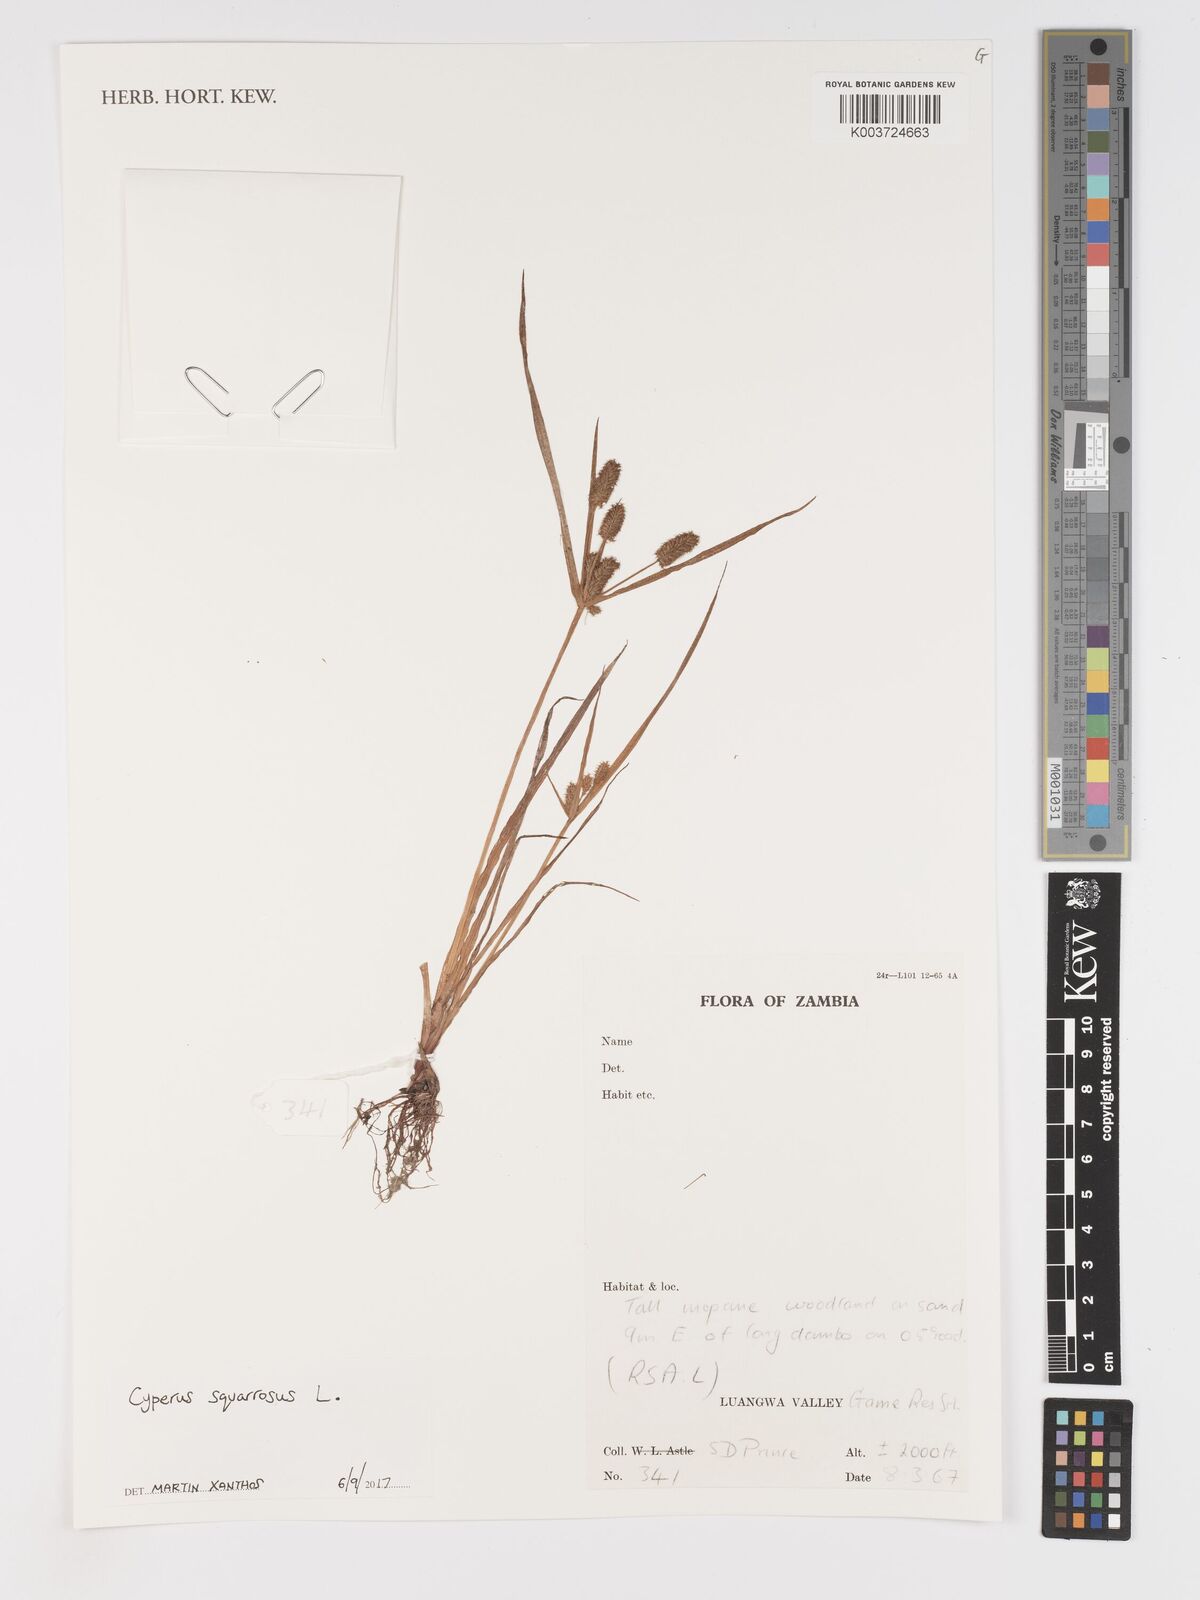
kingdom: Plantae
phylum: Tracheophyta
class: Liliopsida
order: Poales
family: Cyperaceae
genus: Cyperus
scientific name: Cyperus squarrosus
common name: Awned cyperus
